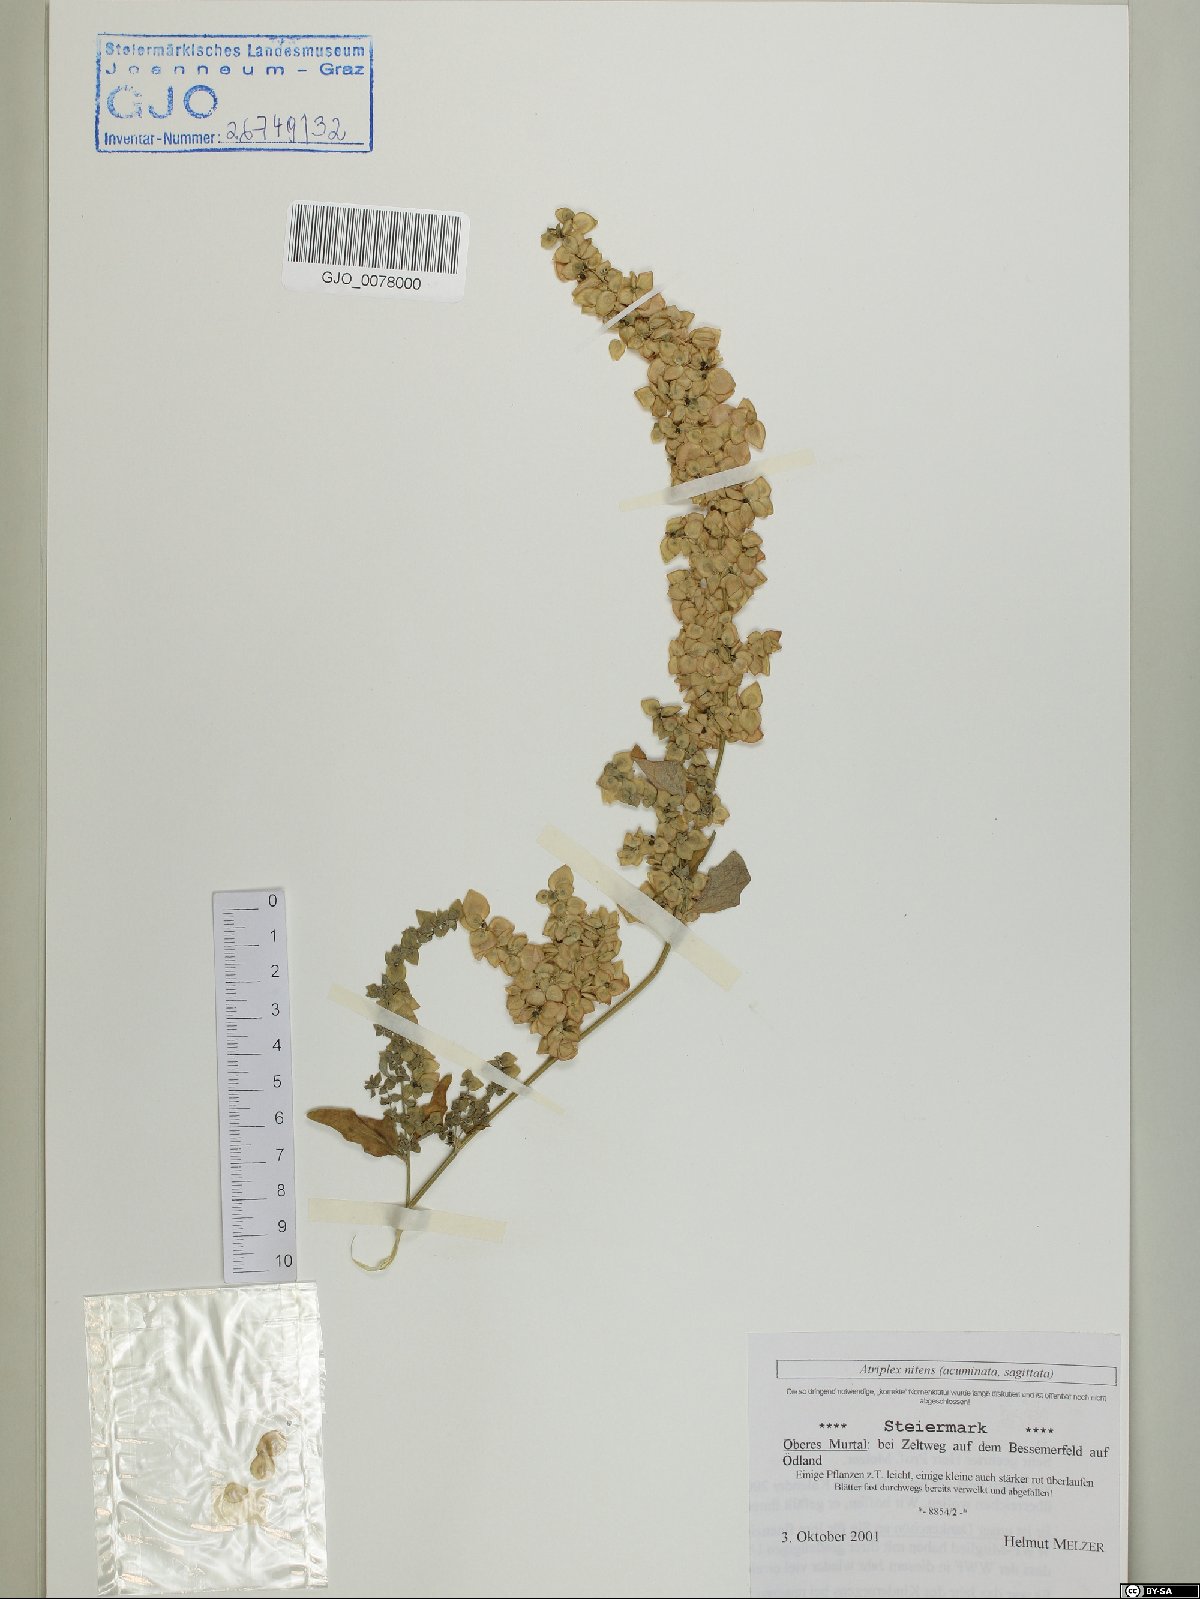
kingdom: Plantae
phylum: Tracheophyta
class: Magnoliopsida
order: Caryophyllales
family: Amaranthaceae
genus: Atriplex
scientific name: Atriplex sagittata
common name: Purple orache
